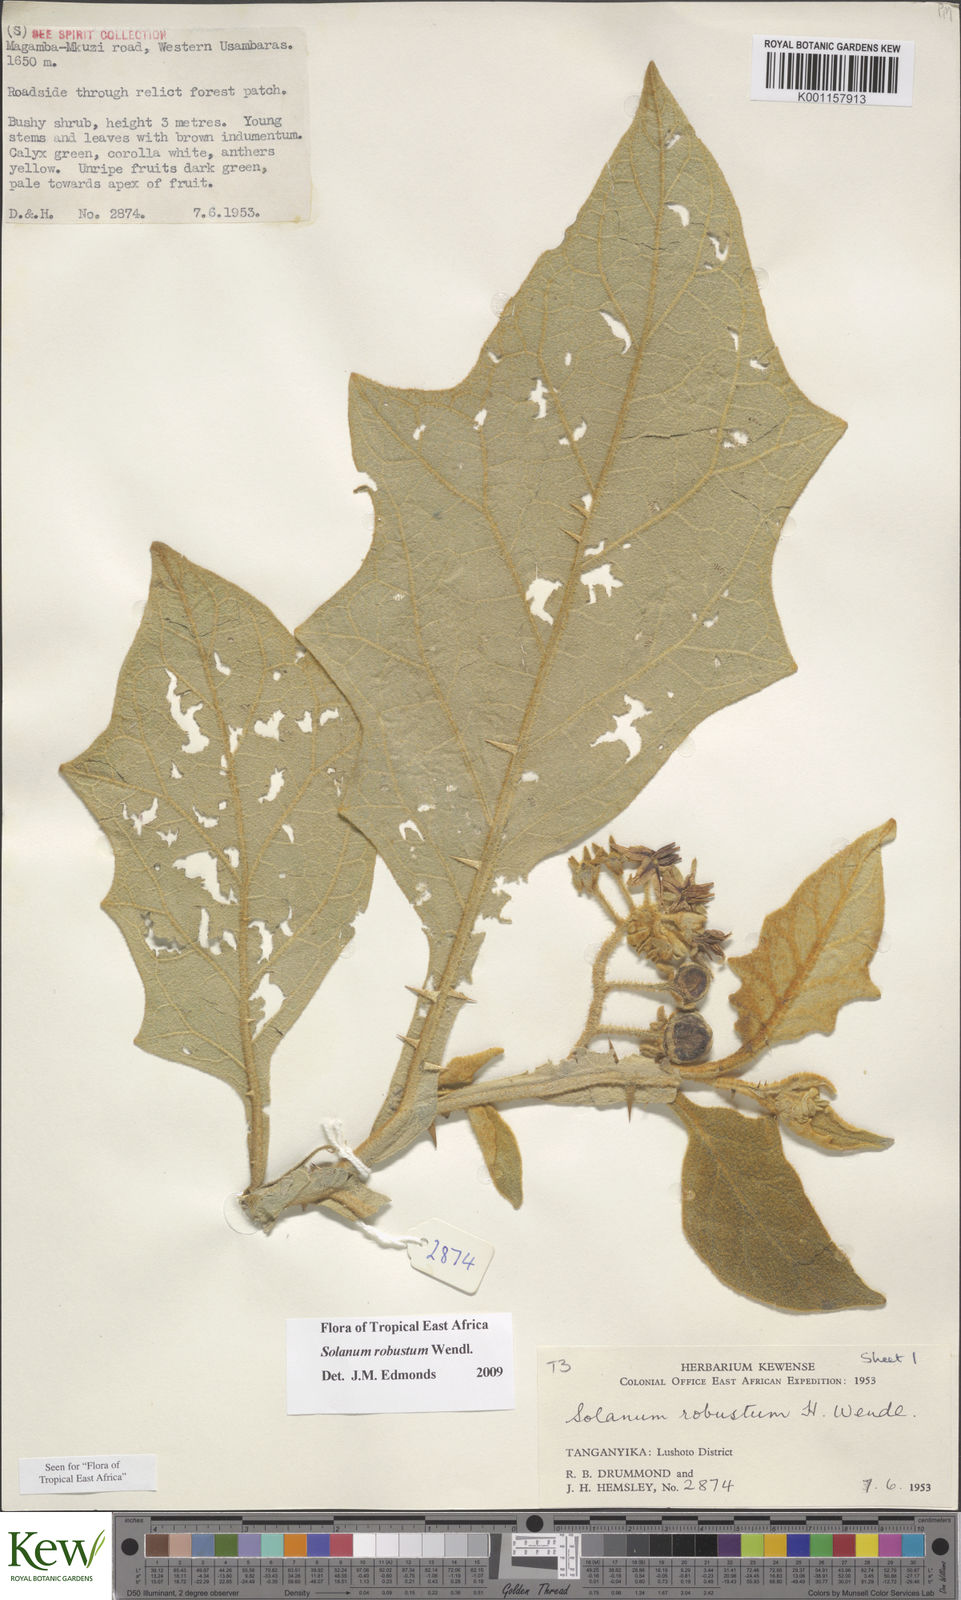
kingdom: Plantae
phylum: Tracheophyta
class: Magnoliopsida
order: Solanales
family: Solanaceae
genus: Solanum
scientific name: Solanum robustum
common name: Shrubby nightshade
